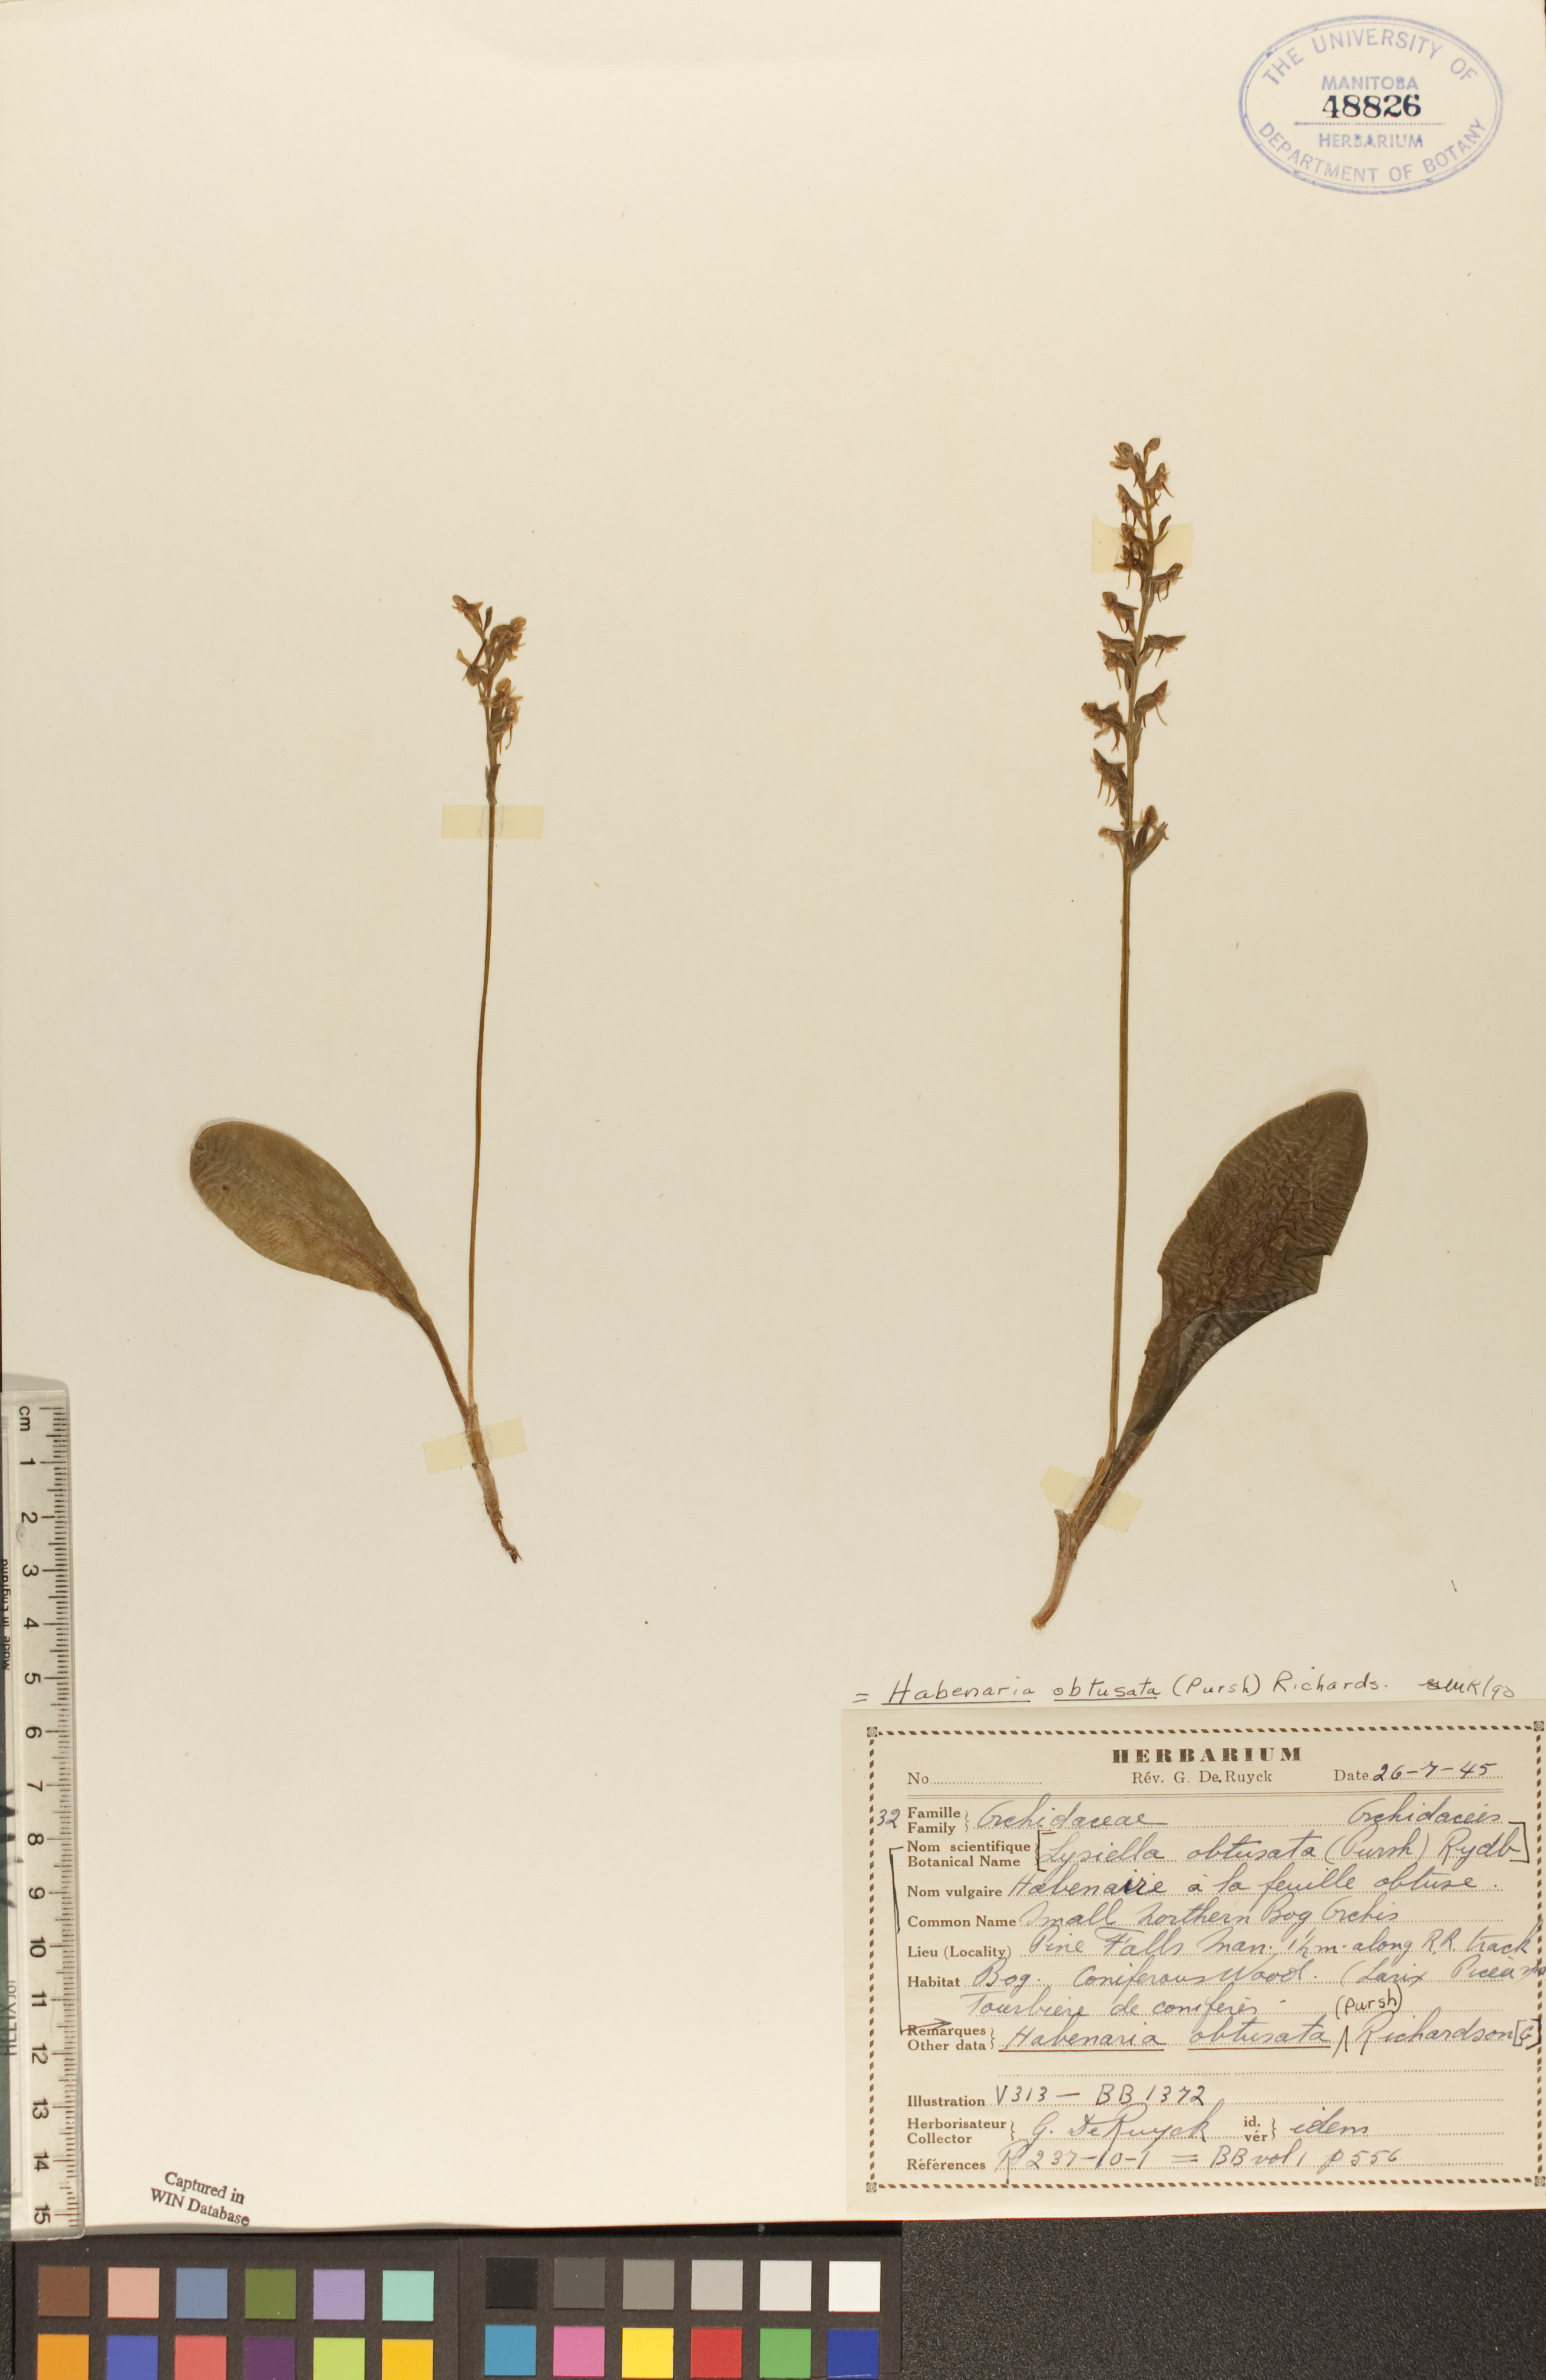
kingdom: Plantae
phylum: Tracheophyta
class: Liliopsida
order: Asparagales
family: Orchidaceae
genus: Platanthera
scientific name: Platanthera obtusata
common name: Blunt bog orchid
